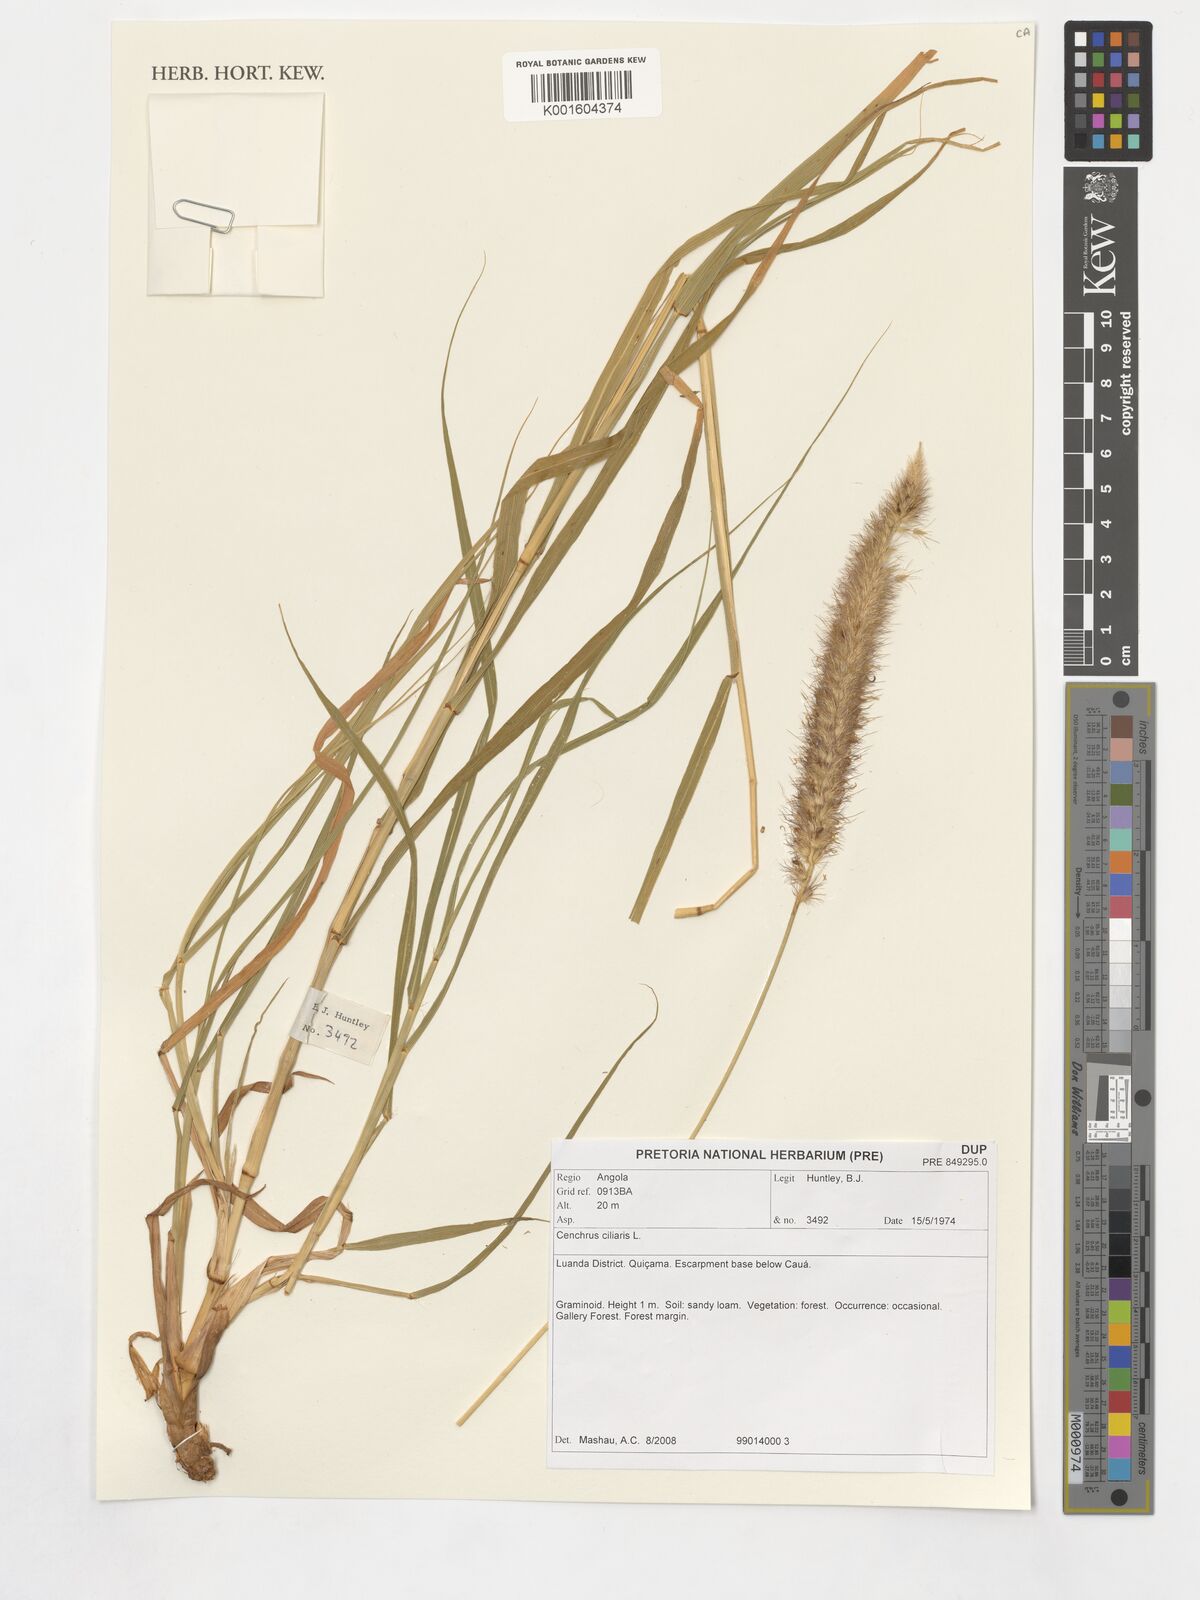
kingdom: Plantae
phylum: Tracheophyta
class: Liliopsida
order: Poales
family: Poaceae
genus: Cenchrus
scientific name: Cenchrus ciliaris
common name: Buffelgrass
